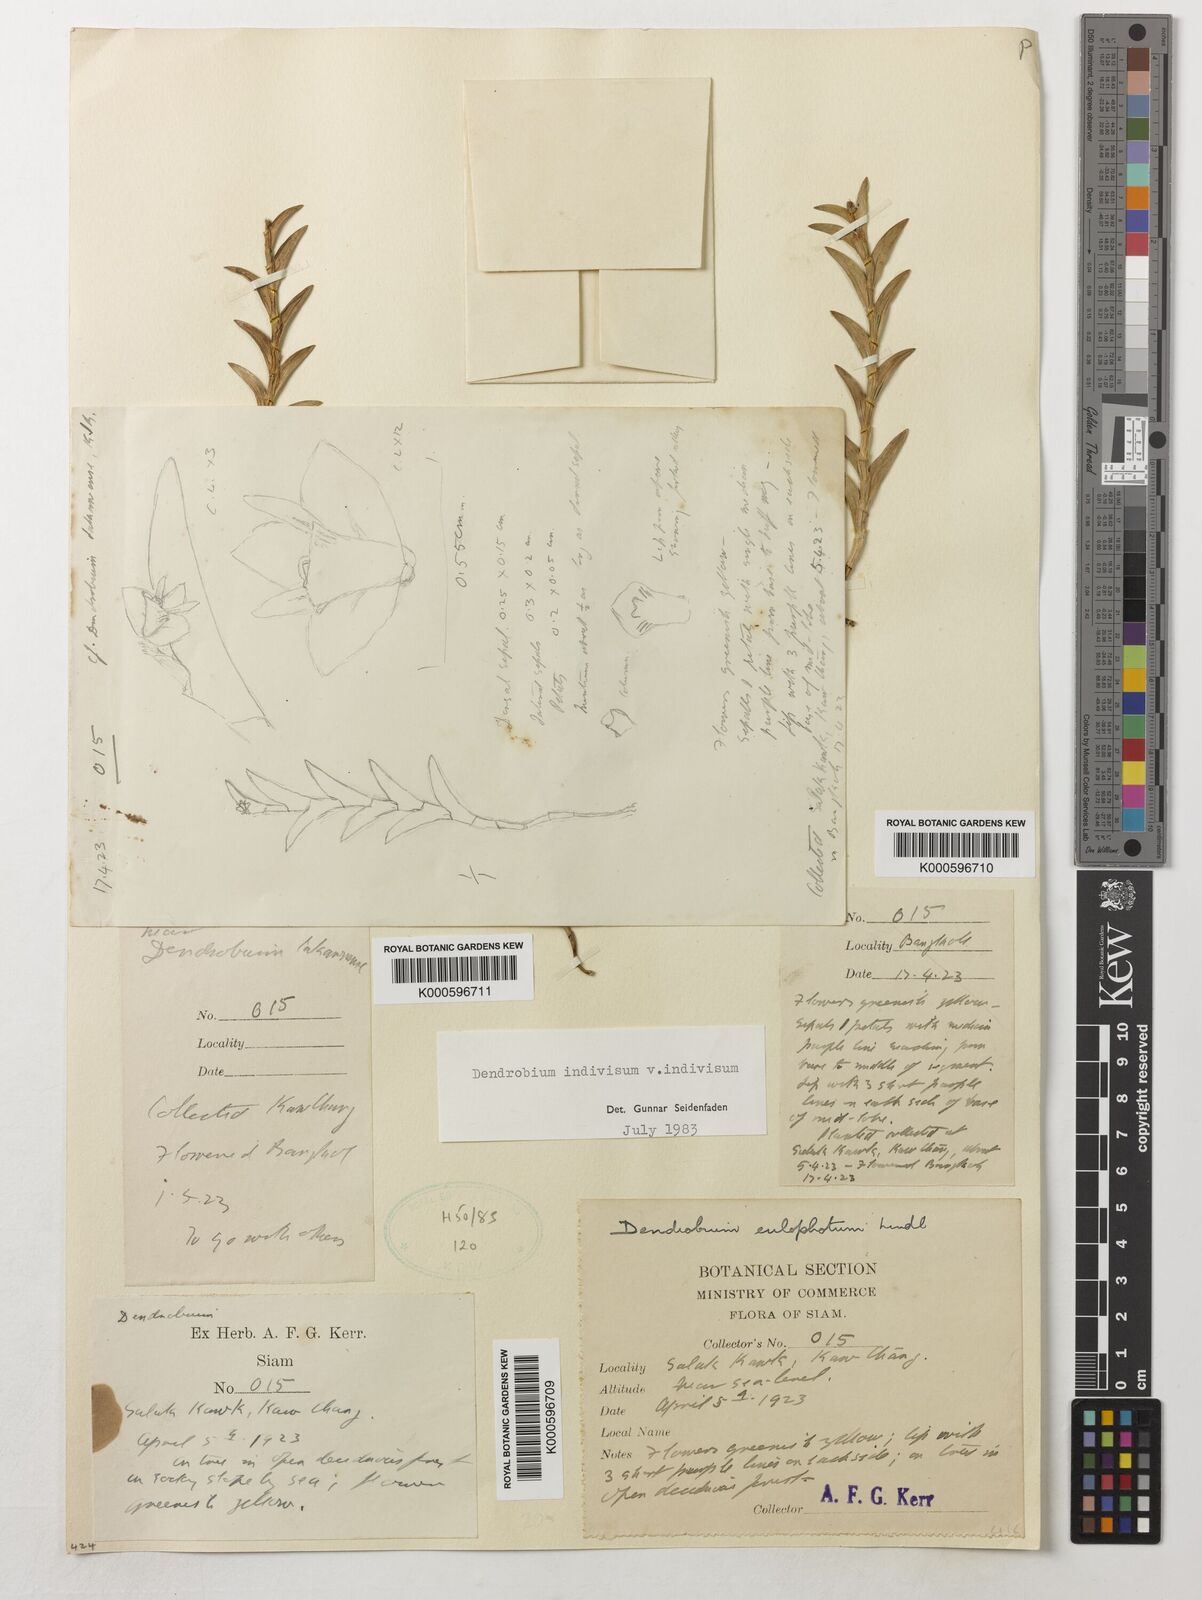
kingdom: Plantae
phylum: Tracheophyta
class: Liliopsida
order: Asparagales
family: Orchidaceae
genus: Dendrobium
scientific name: Dendrobium indivisum
